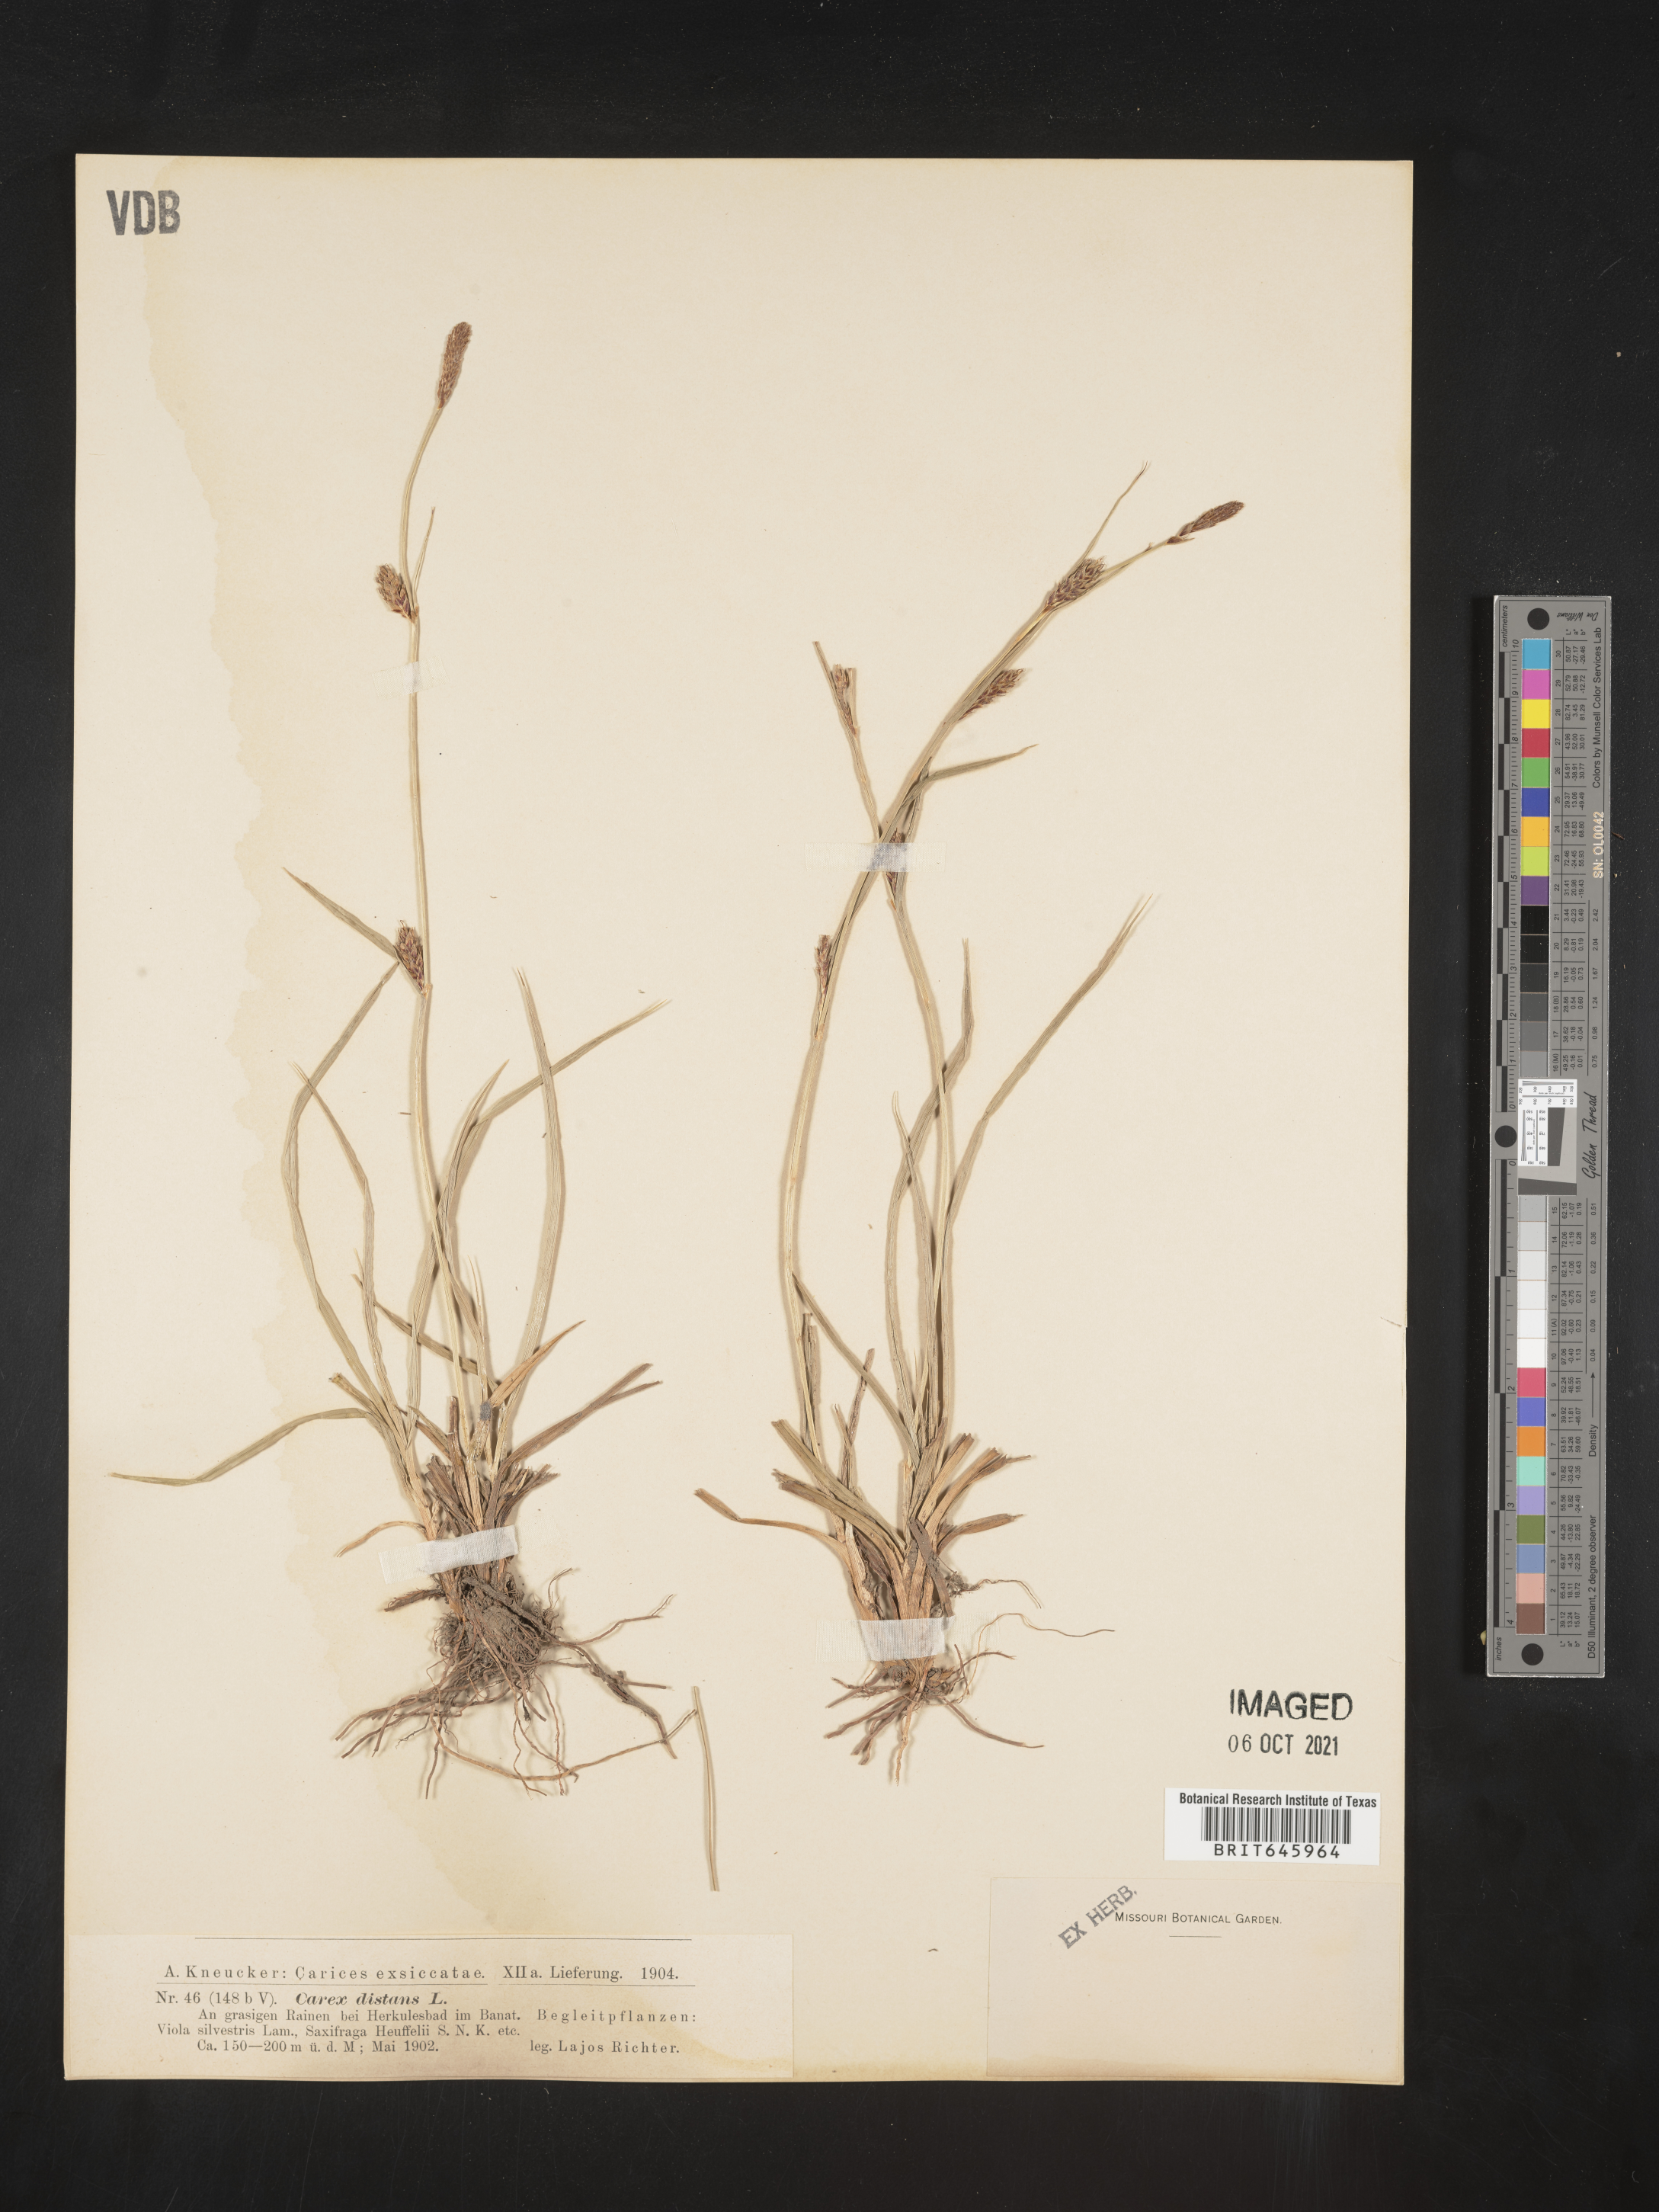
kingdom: Plantae
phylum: Tracheophyta
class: Liliopsida
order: Poales
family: Cyperaceae
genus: Carex
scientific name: Carex
